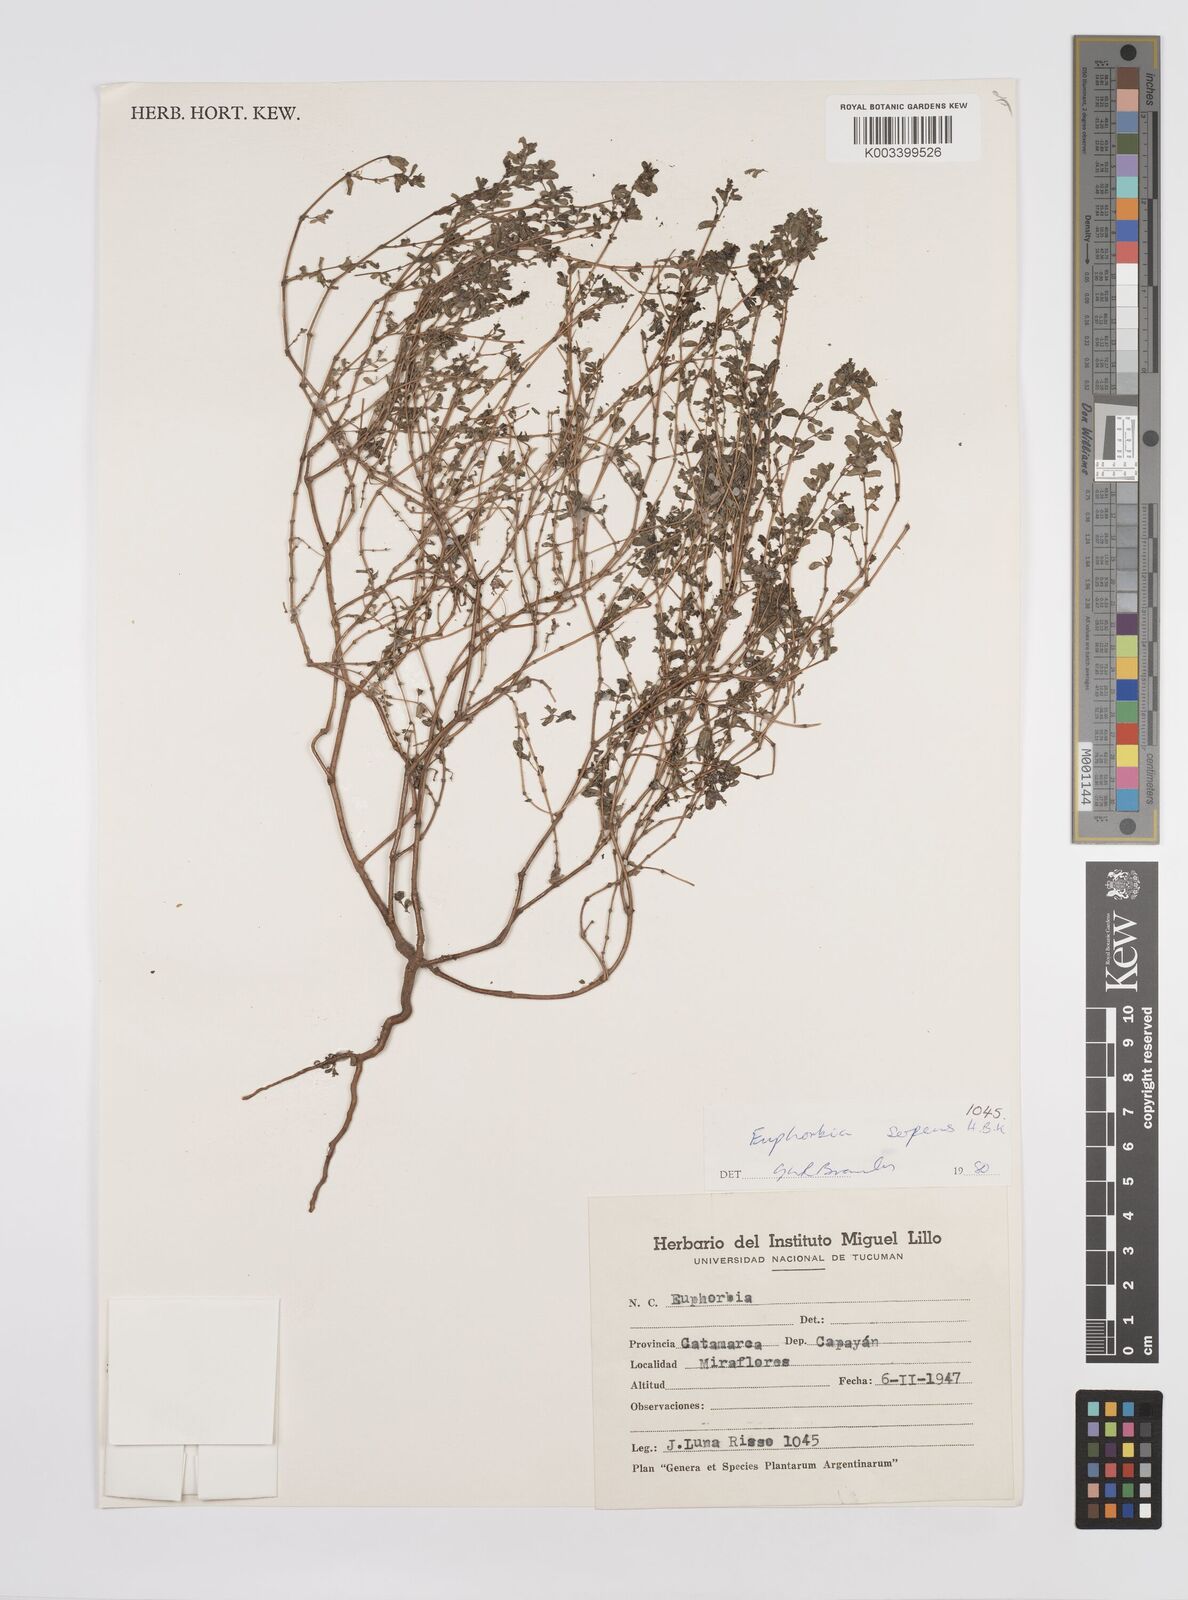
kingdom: Plantae
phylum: Tracheophyta
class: Magnoliopsida
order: Malpighiales
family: Euphorbiaceae
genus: Euphorbia
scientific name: Euphorbia
